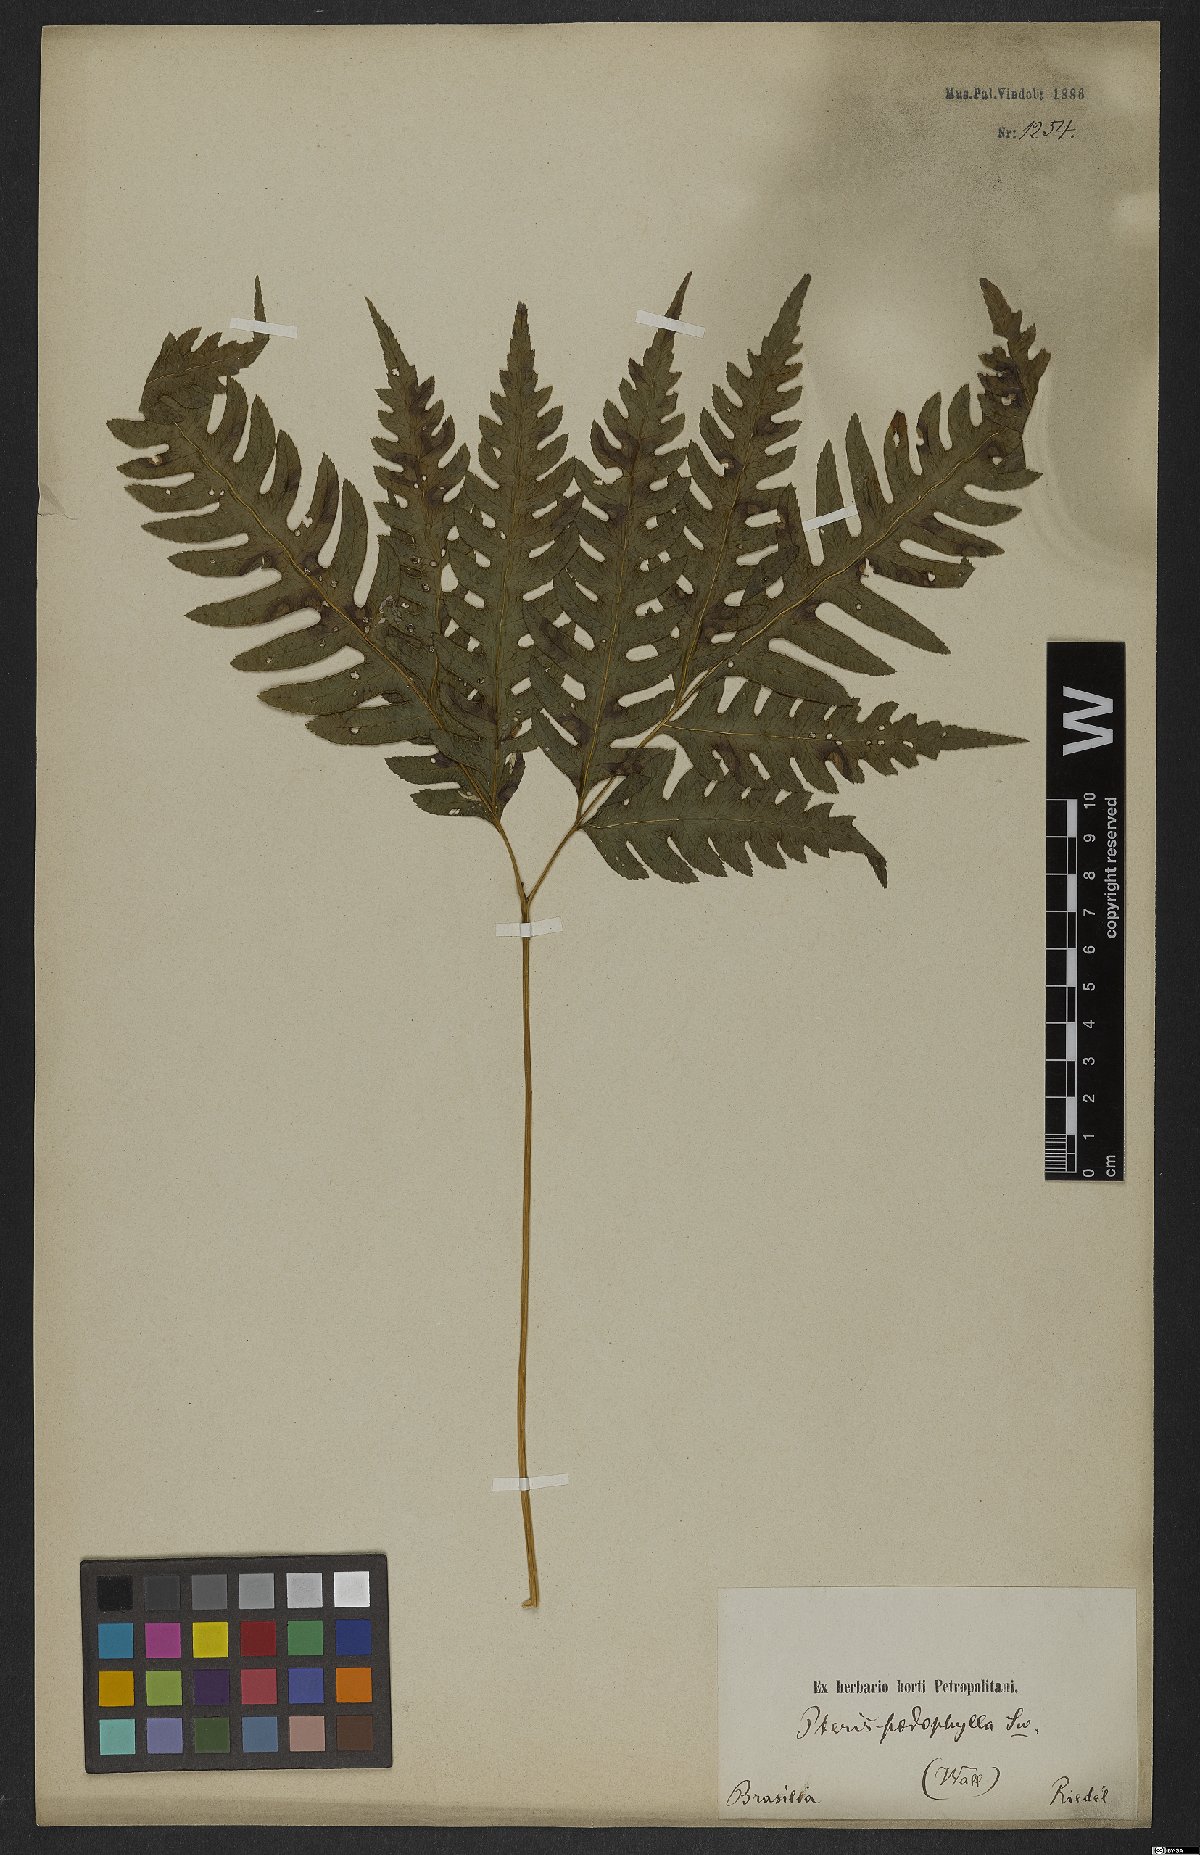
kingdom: Plantae
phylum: Tracheophyta
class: Polypodiopsida
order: Polypodiales
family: Pteridaceae
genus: Pteris
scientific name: Pteris podophylla
